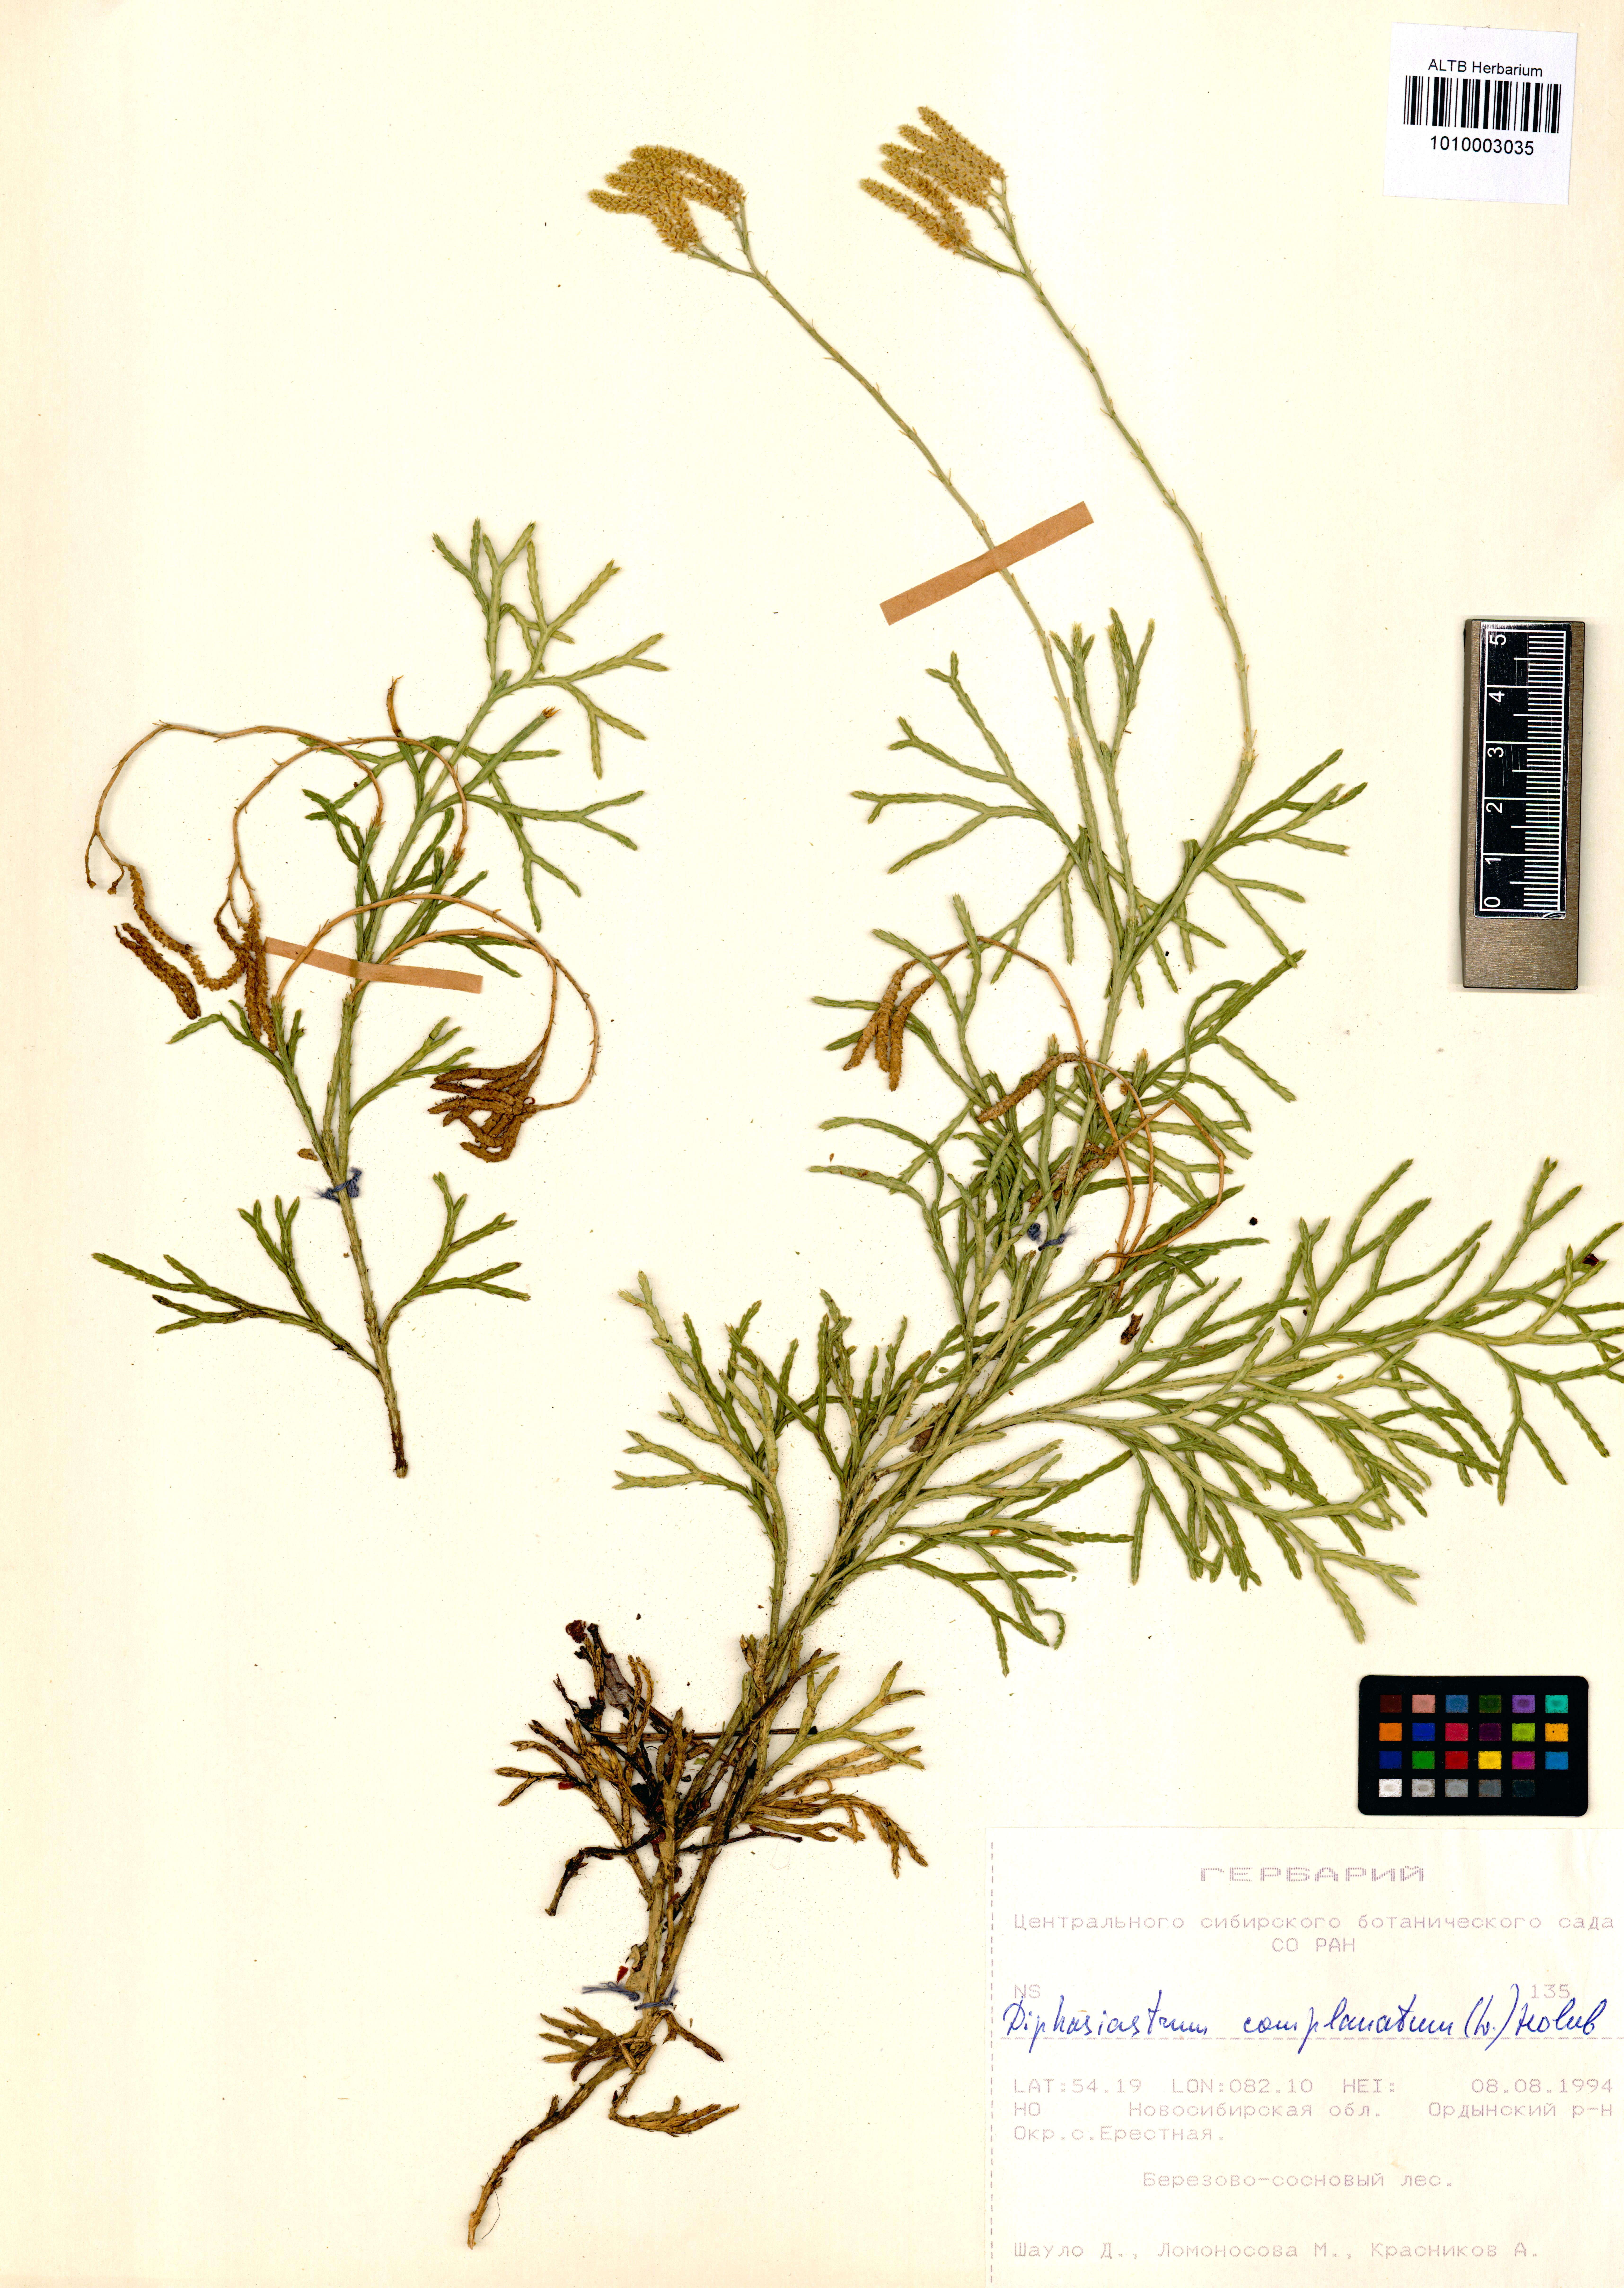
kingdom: Plantae
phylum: Tracheophyta
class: Lycopodiopsida
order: Lycopodiales
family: Lycopodiaceae
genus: Diphasiastrum
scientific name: Diphasiastrum complanatum
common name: Northern running-pine
